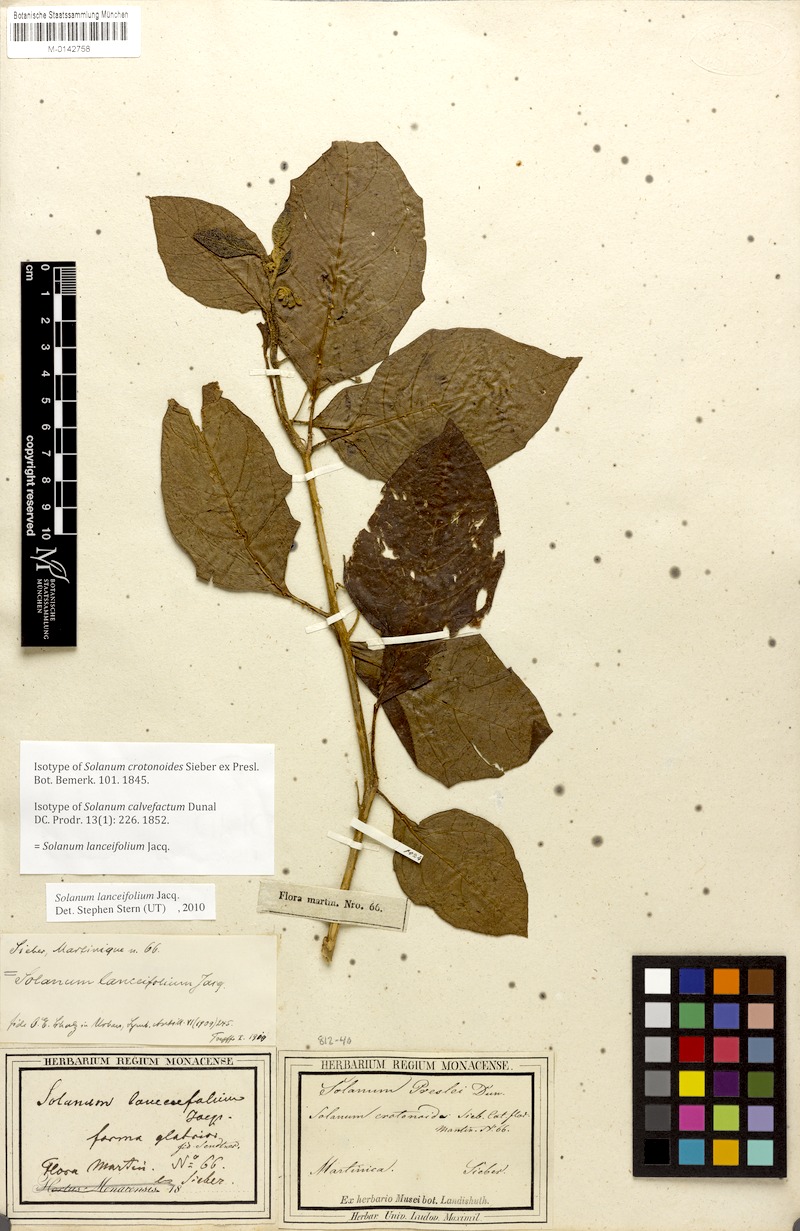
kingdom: Plantae
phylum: Tracheophyta
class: Magnoliopsida
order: Solanales
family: Solanaceae
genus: Solanum
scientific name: Solanum lanceifolium
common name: Lanceleaf nightshade
